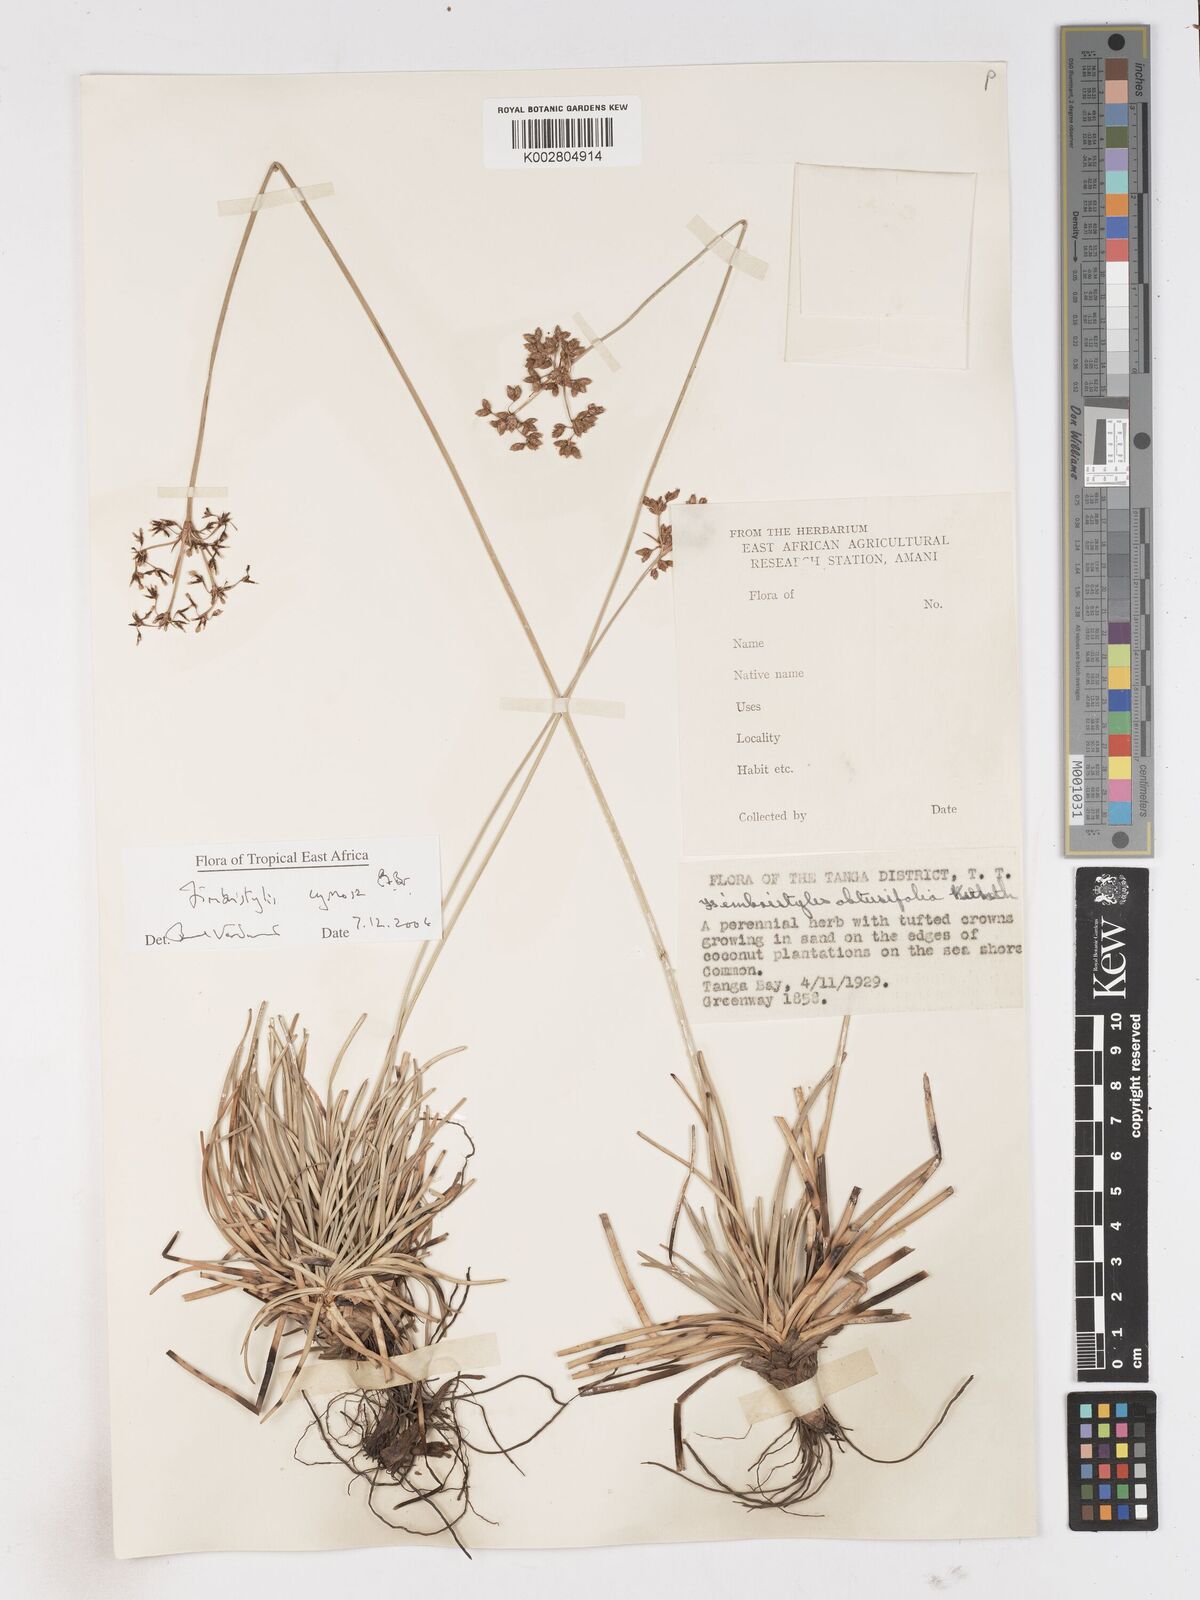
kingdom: Plantae
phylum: Tracheophyta
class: Liliopsida
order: Poales
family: Cyperaceae
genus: Fimbristylis
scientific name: Fimbristylis cymosa
